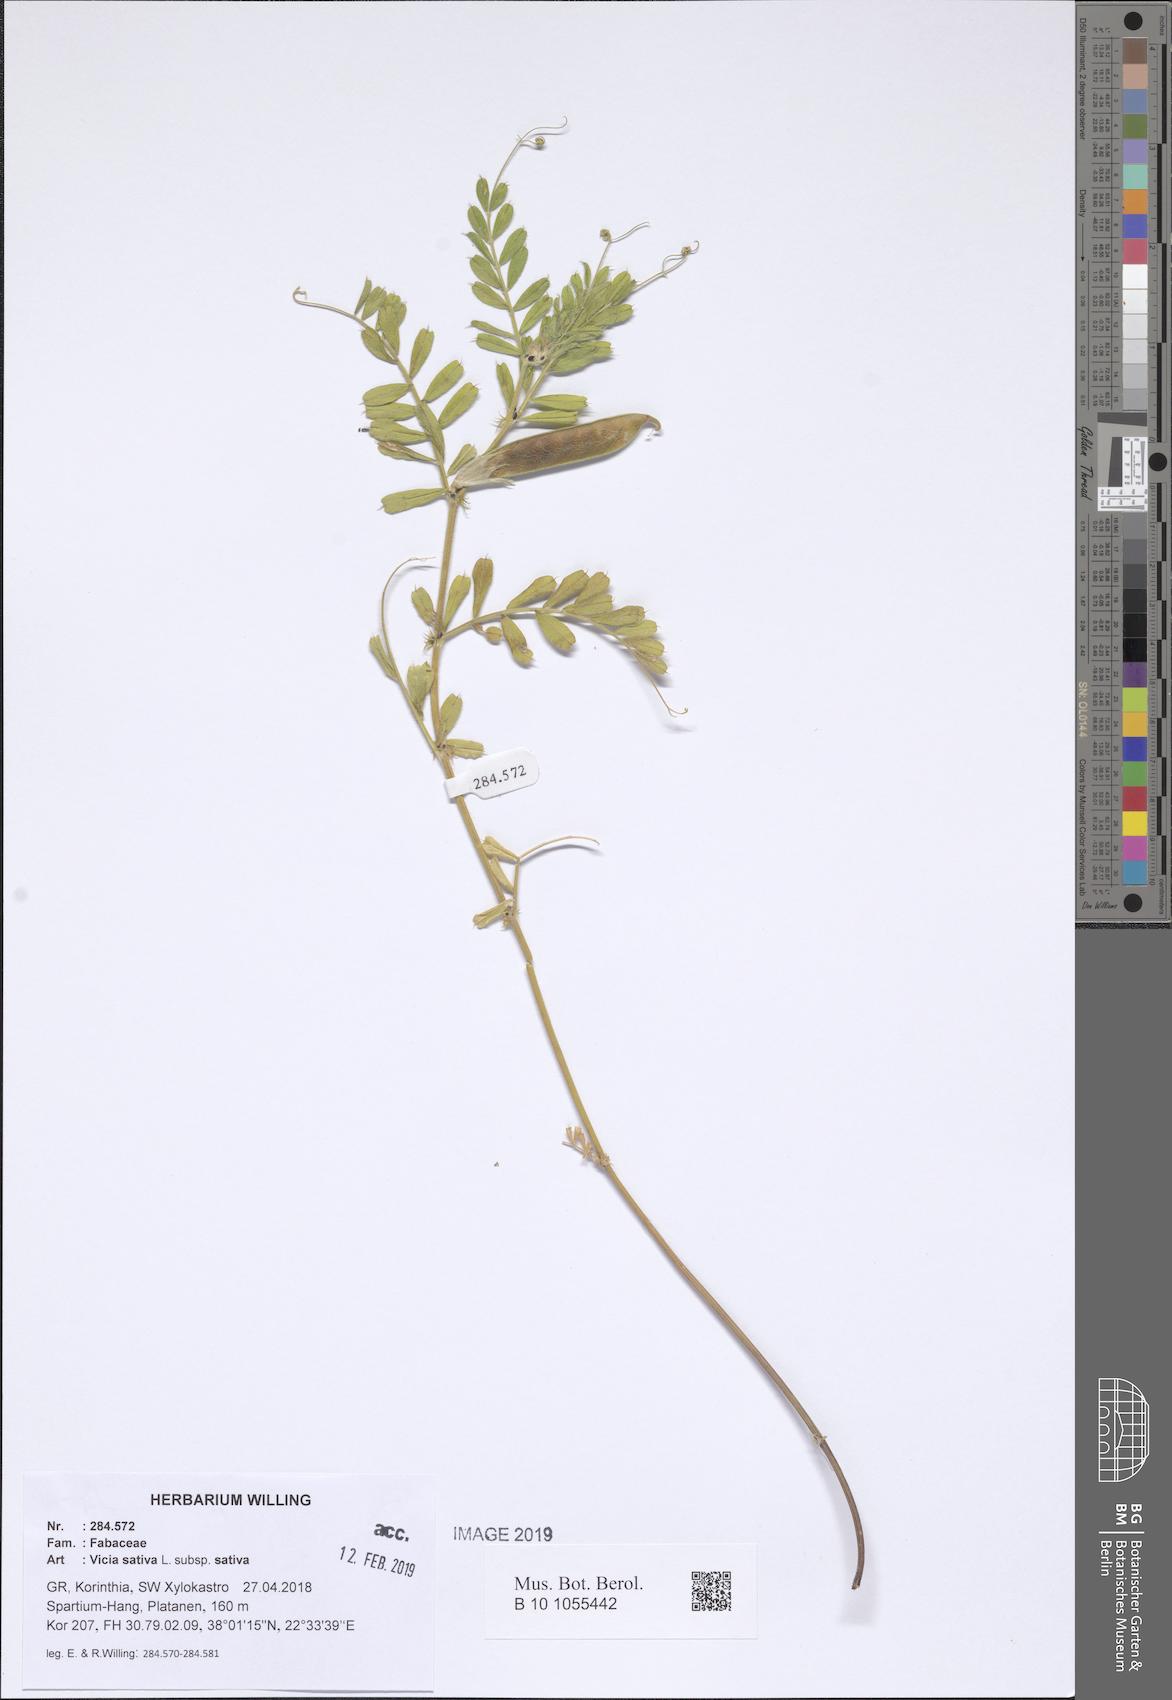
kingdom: Plantae
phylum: Tracheophyta
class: Magnoliopsida
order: Fabales
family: Fabaceae
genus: Vicia
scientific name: Vicia sativa
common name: Garden vetch
